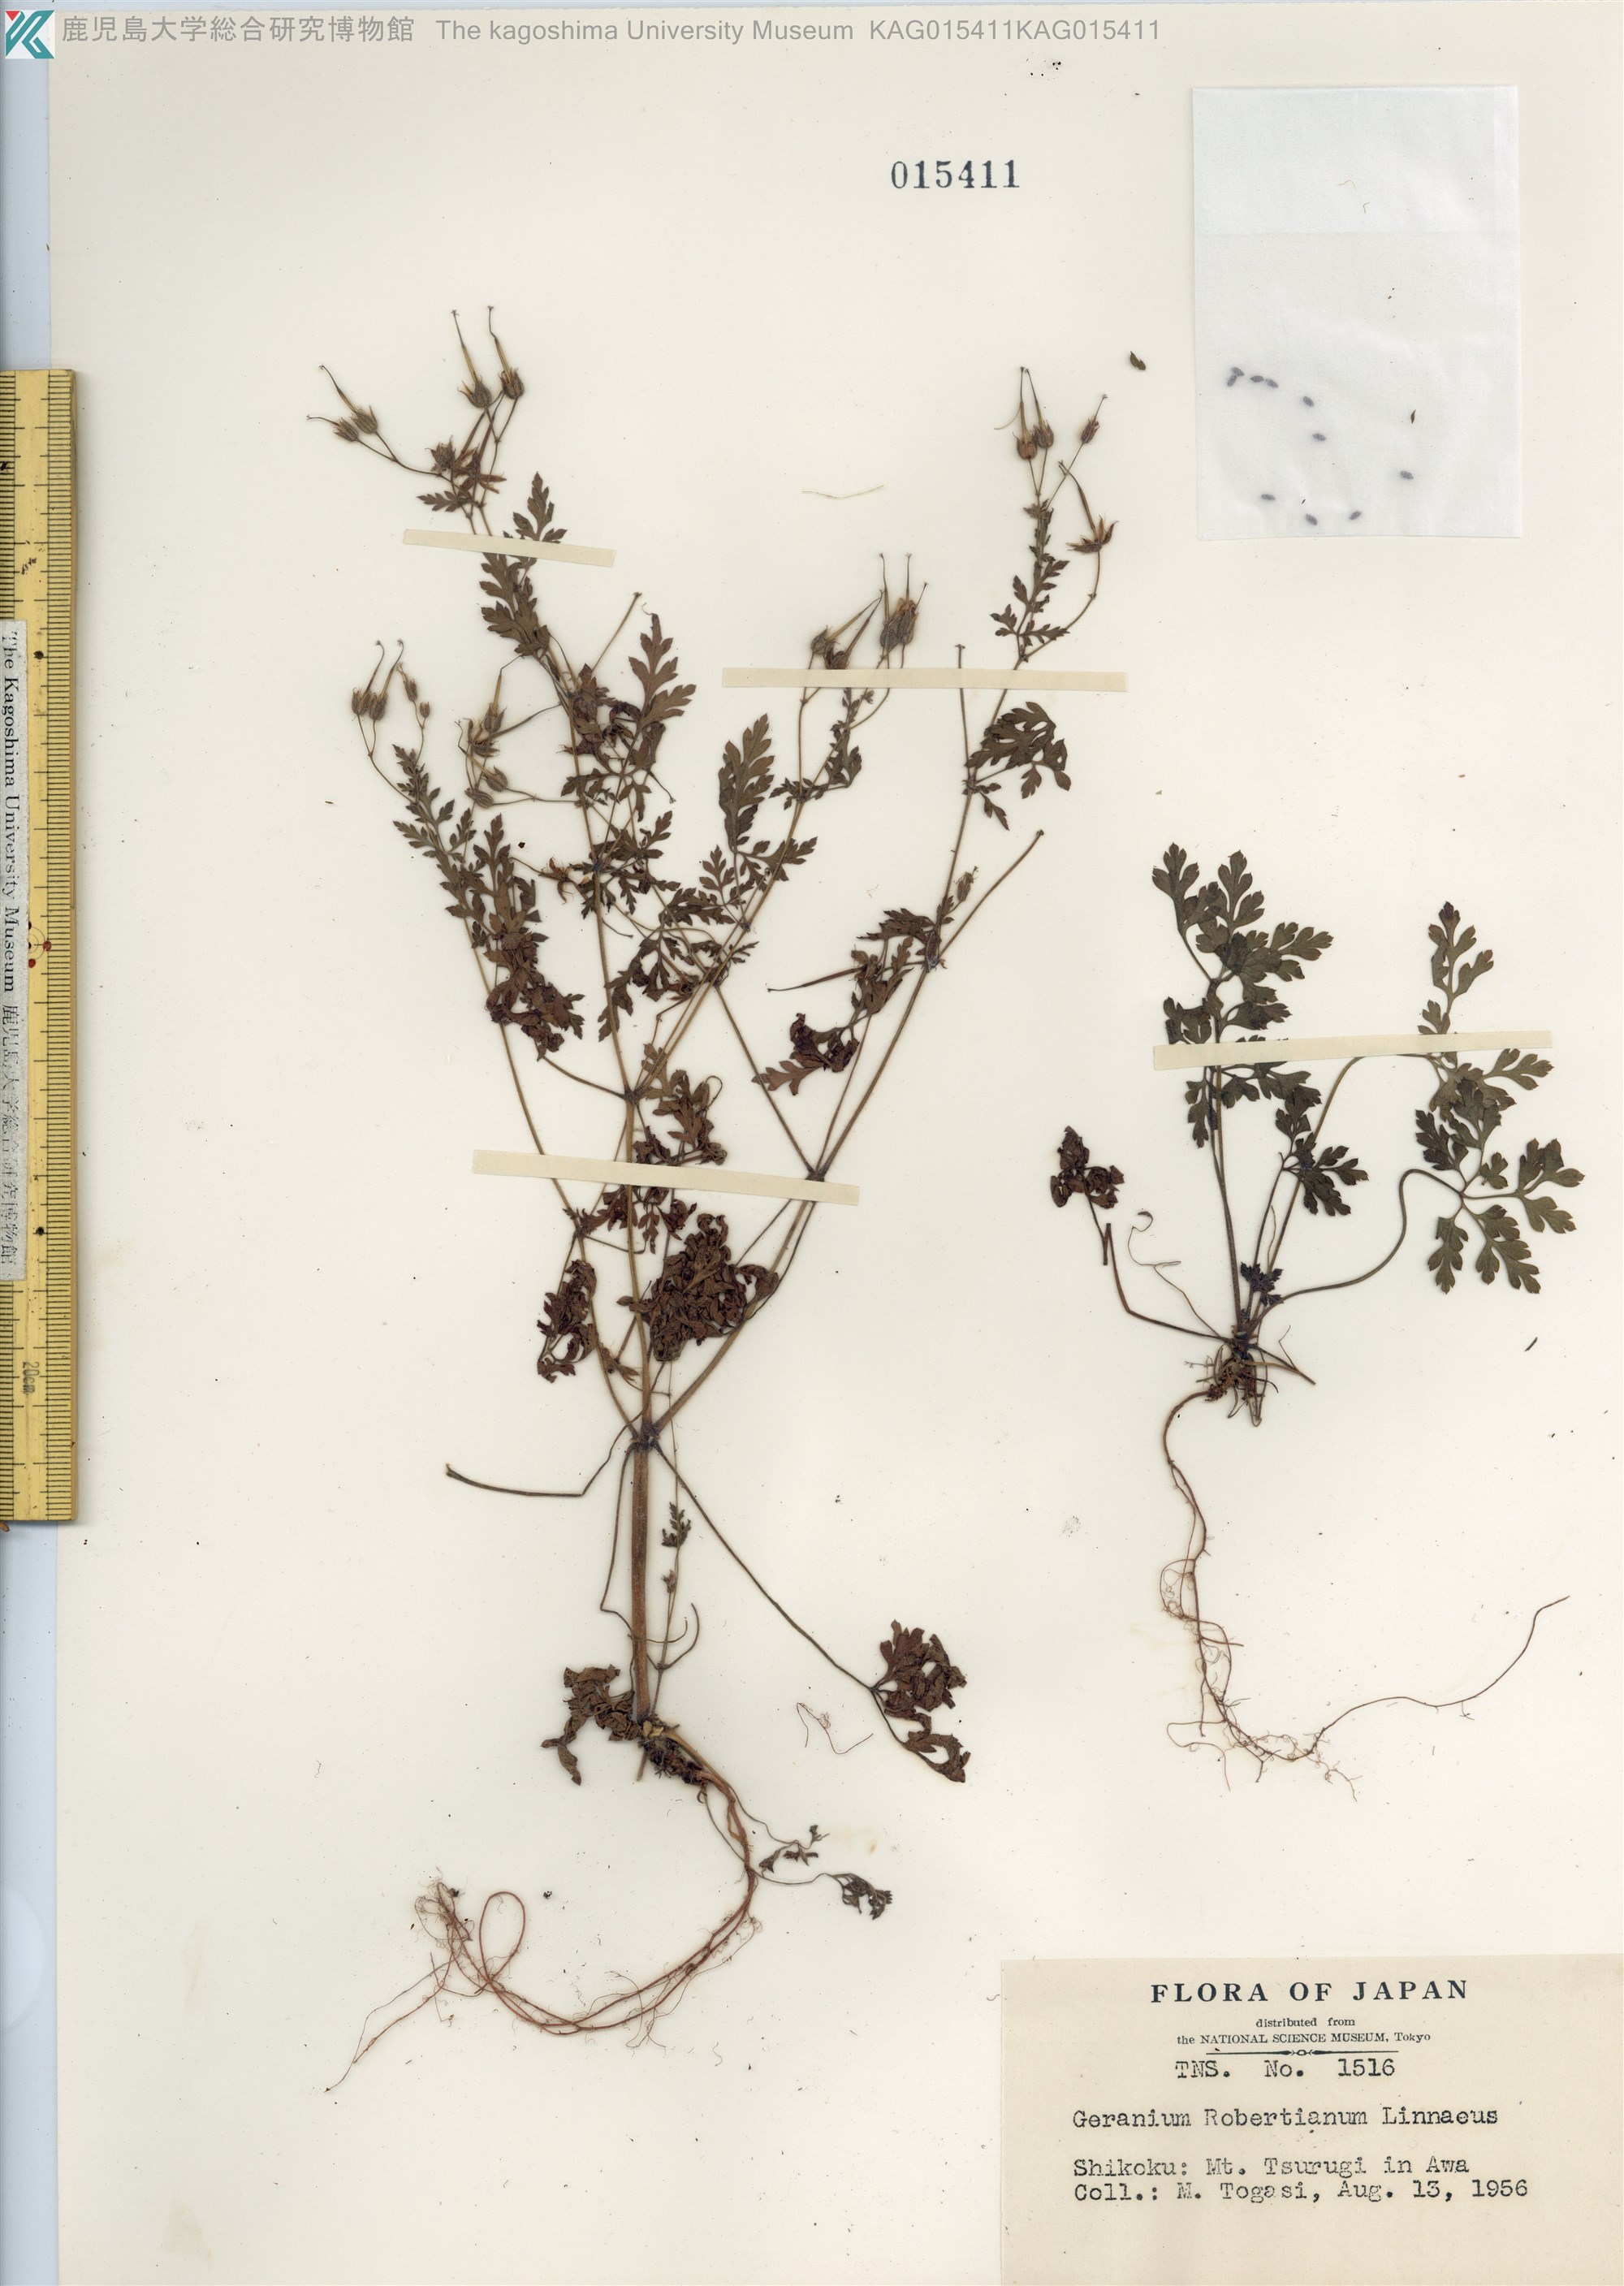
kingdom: Plantae
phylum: Tracheophyta
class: Magnoliopsida
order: Geraniales
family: Geraniaceae
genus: Geranium
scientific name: Geranium robertianum
